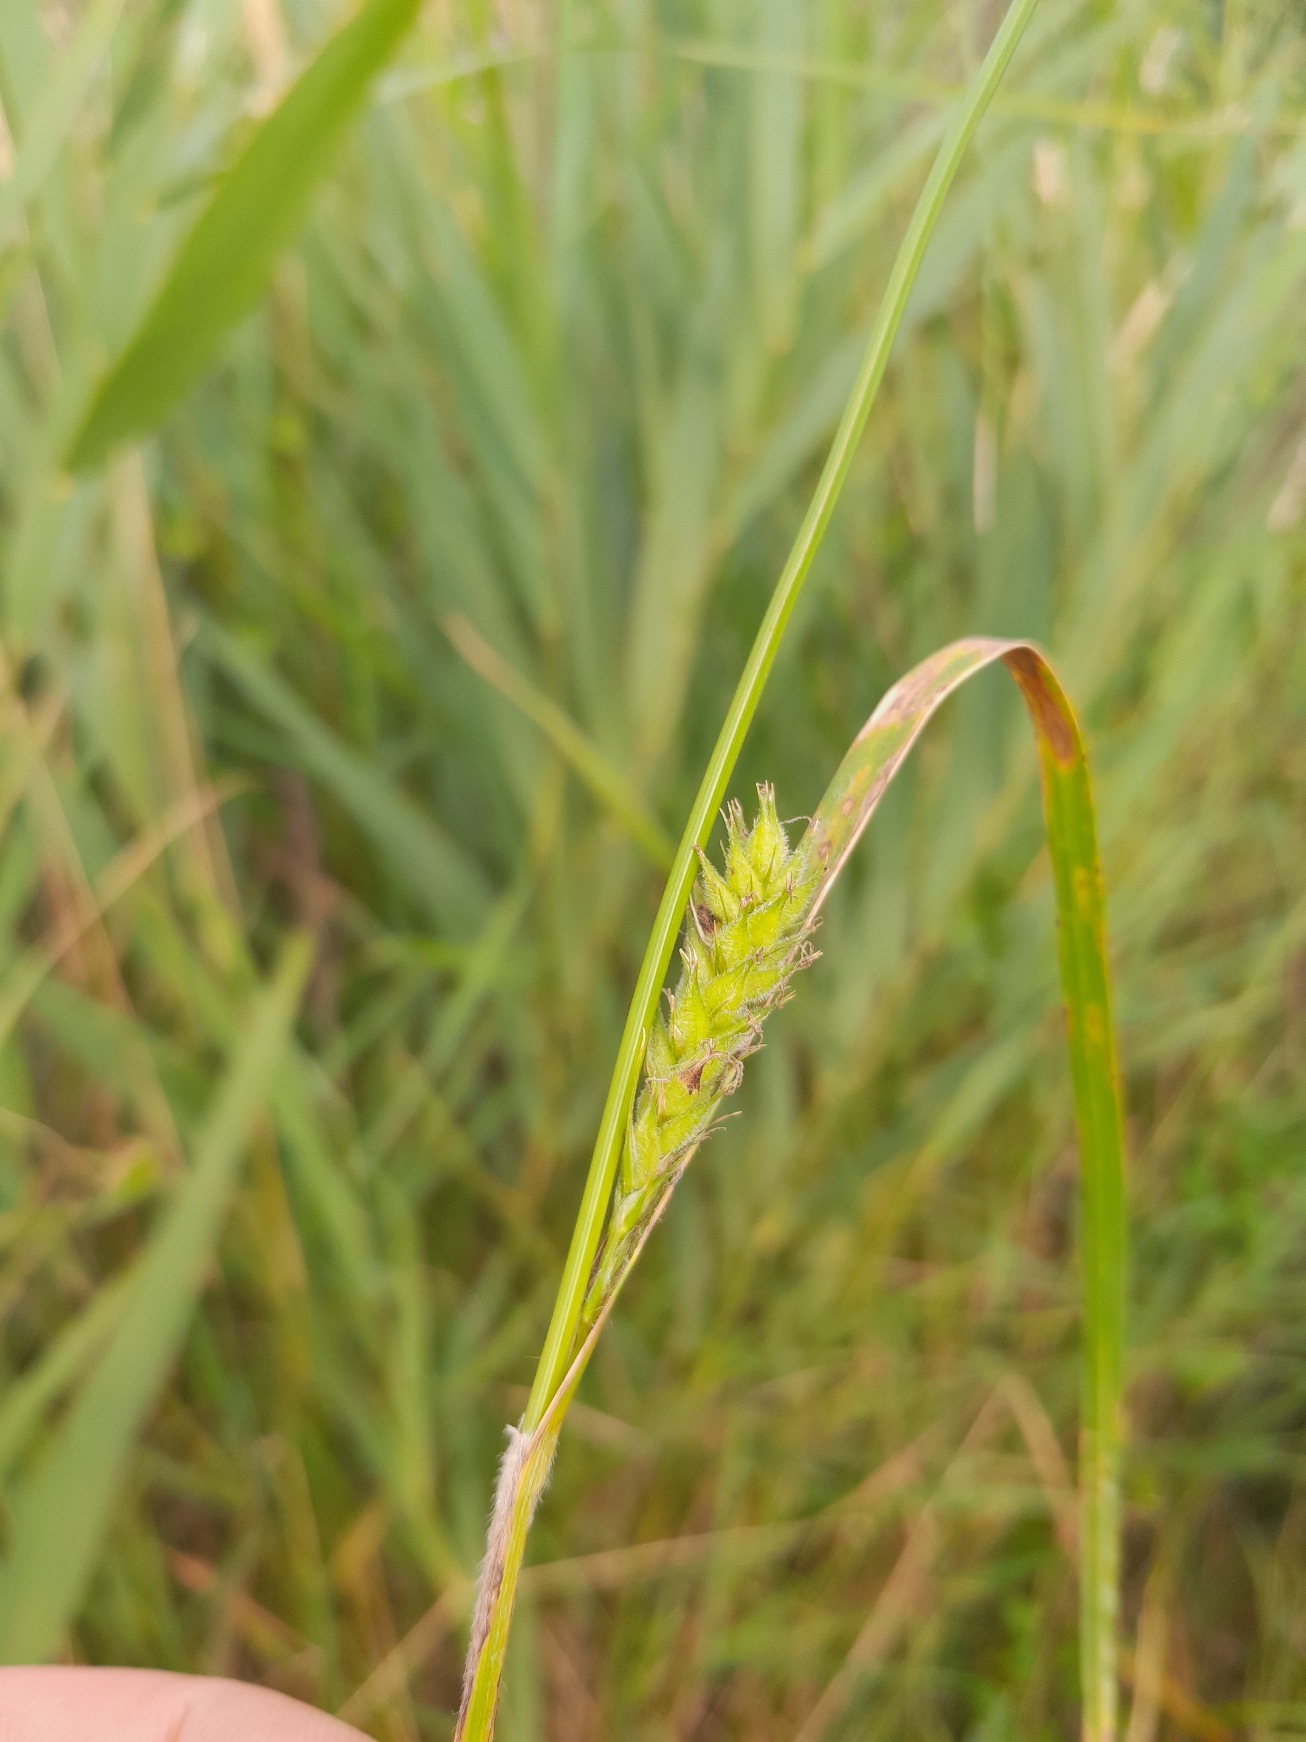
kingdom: Plantae
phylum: Tracheophyta
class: Liliopsida
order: Poales
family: Cyperaceae
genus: Carex
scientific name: Carex hirta
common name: Håret star
